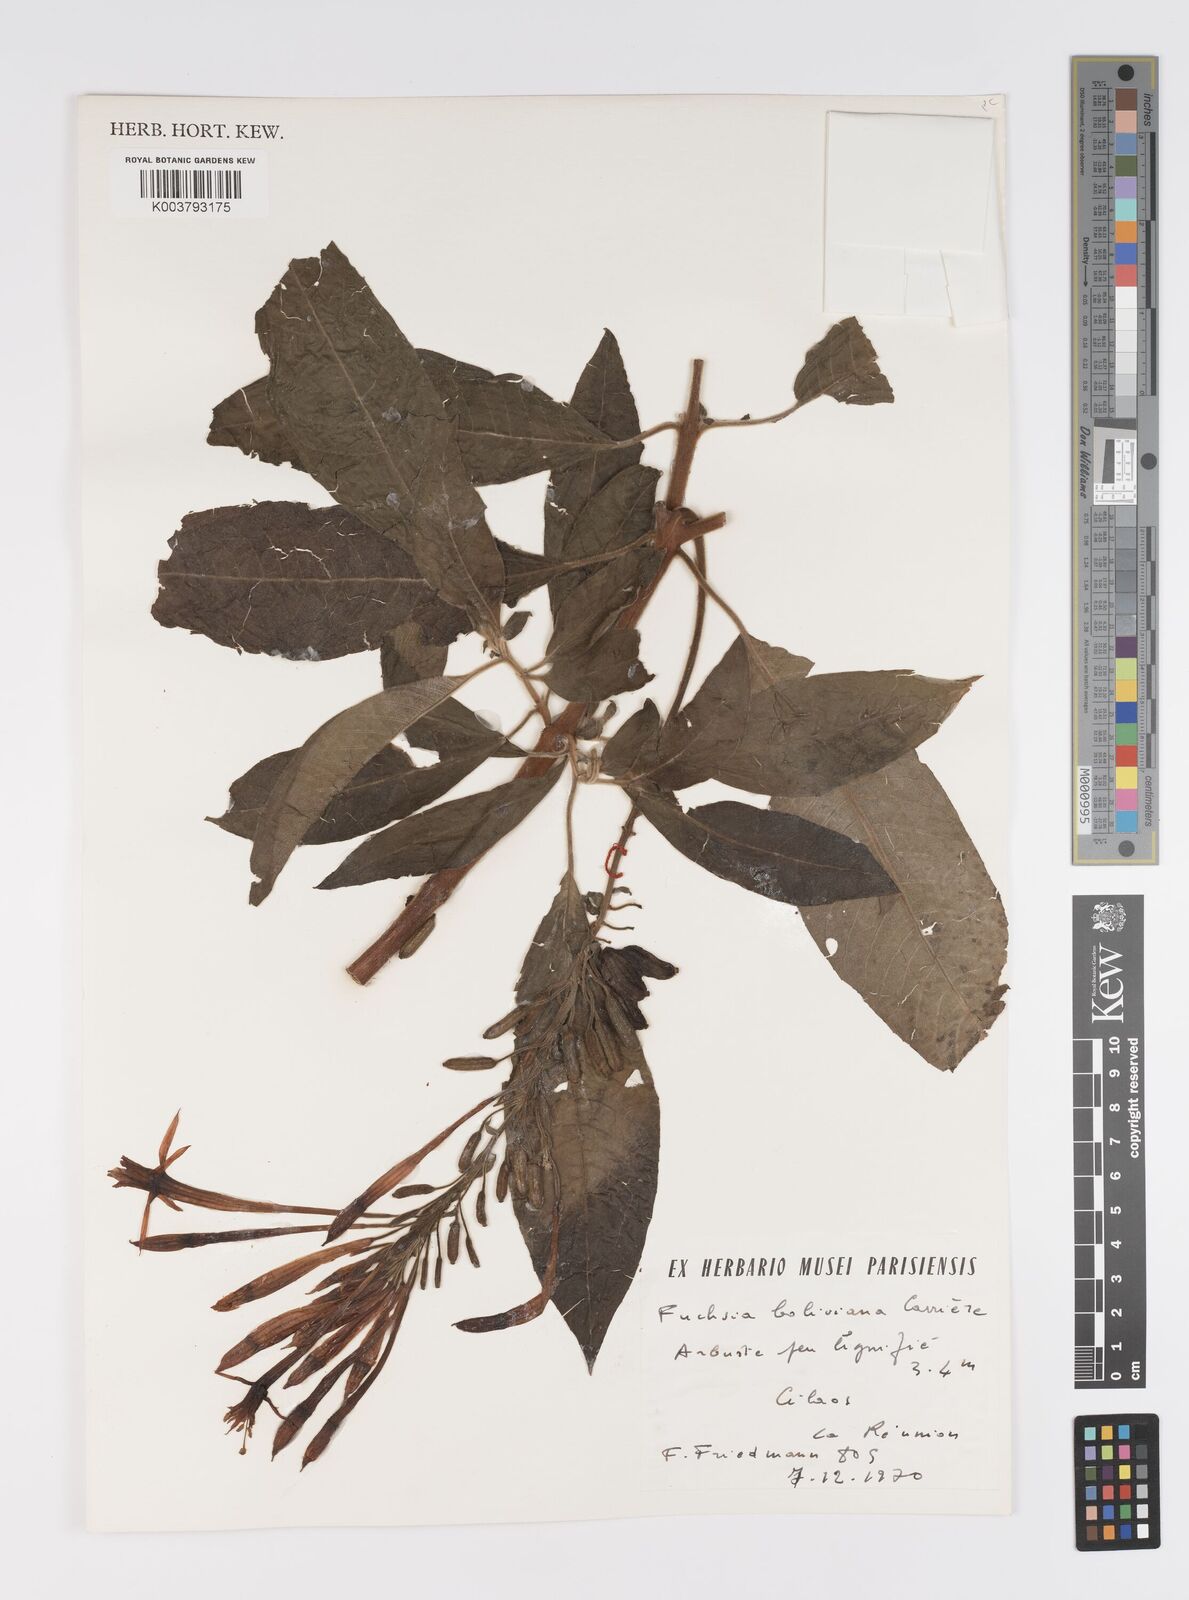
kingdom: Plantae
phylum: Tracheophyta
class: Magnoliopsida
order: Myrtales
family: Onagraceae
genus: Fuchsia
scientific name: Fuchsia boliviana
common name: Bolivian fuchsia
